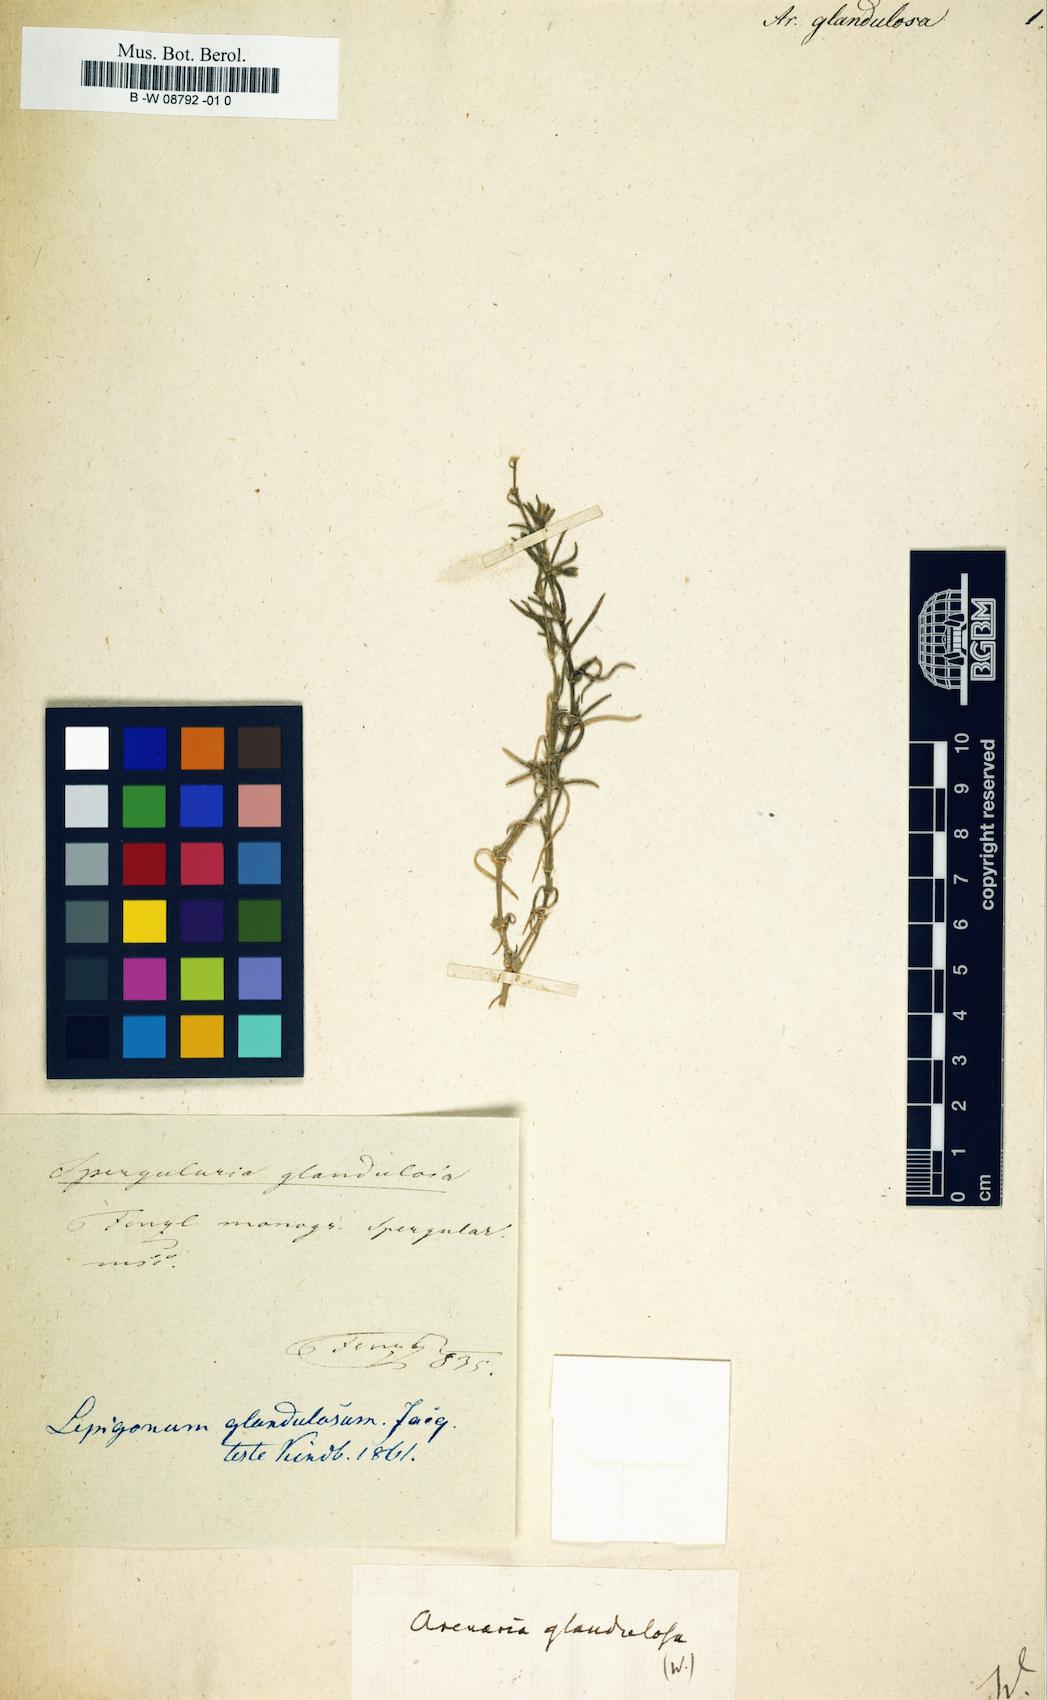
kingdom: Plantae
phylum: Tracheophyta
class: Magnoliopsida
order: Caryophyllales
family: Caryophyllaceae
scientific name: Caryophyllaceae
